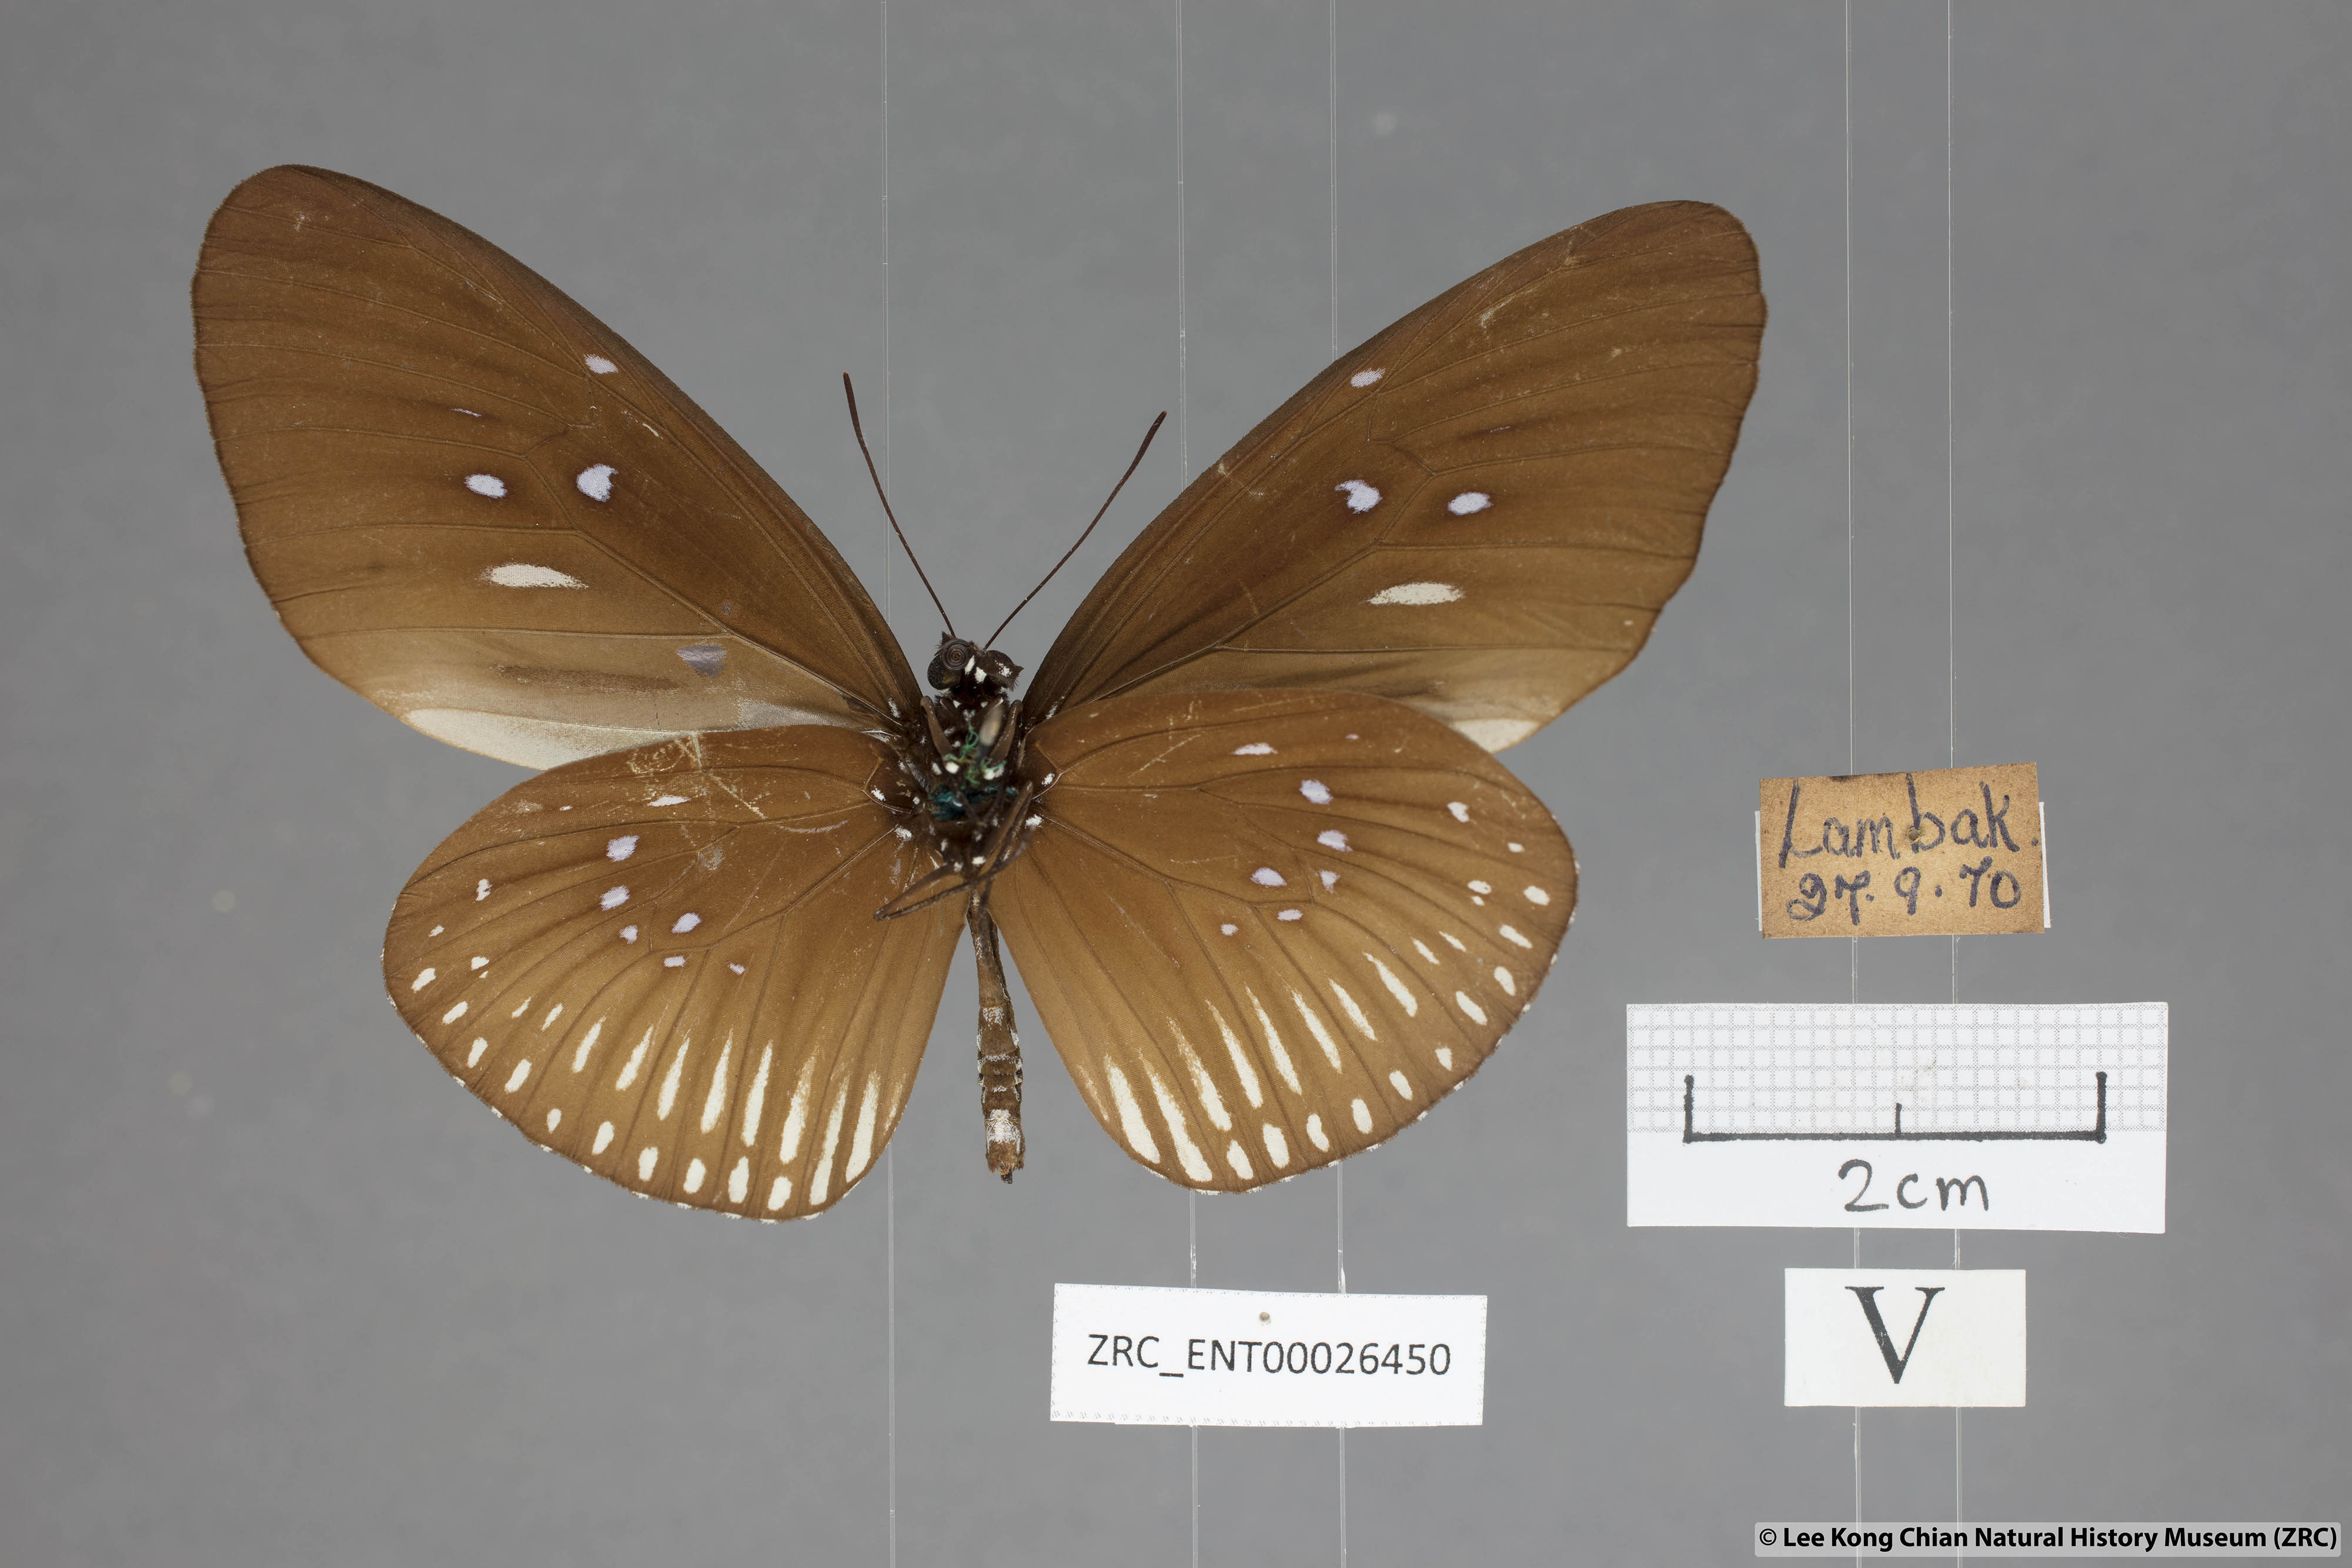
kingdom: Animalia
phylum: Arthropoda
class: Insecta
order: Lepidoptera
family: Nymphalidae
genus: Euploea
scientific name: Euploea eyndhovii
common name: Striped black crow butterfly
